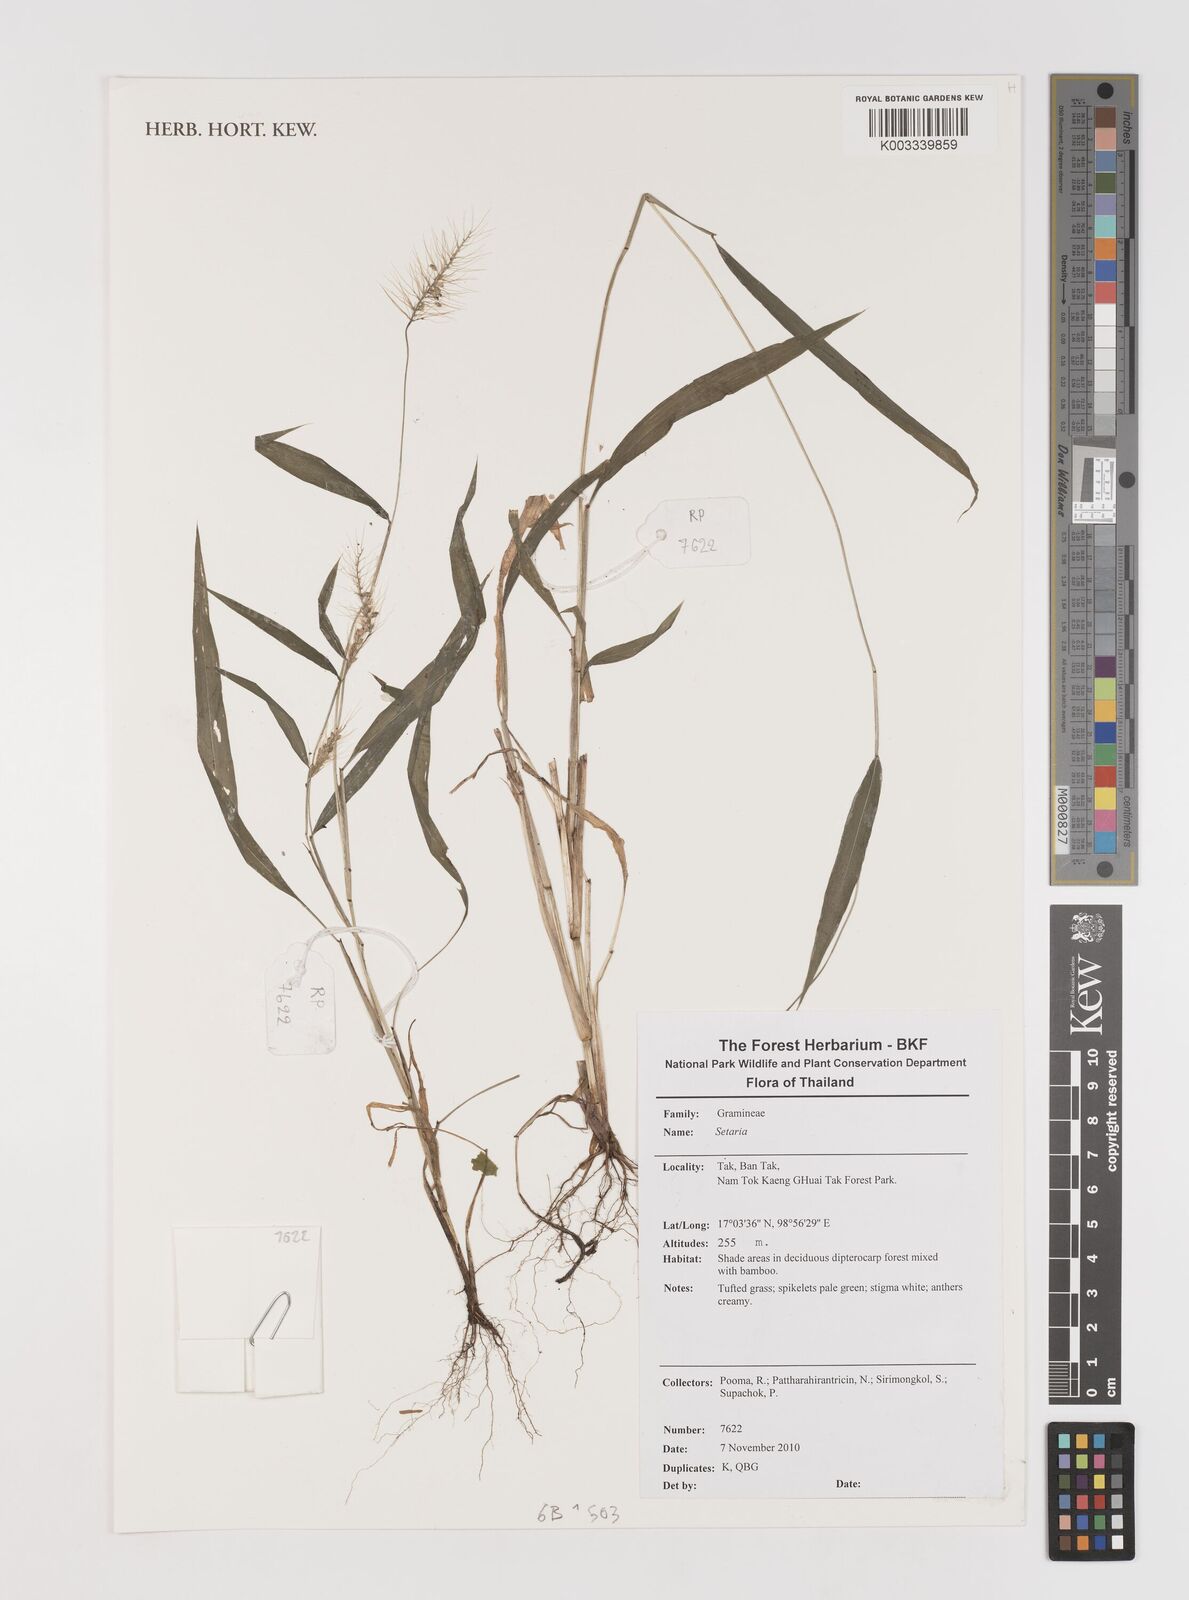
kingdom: Plantae
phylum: Tracheophyta
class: Liliopsida
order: Poales
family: Poaceae
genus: Setaria
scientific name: Setaria
